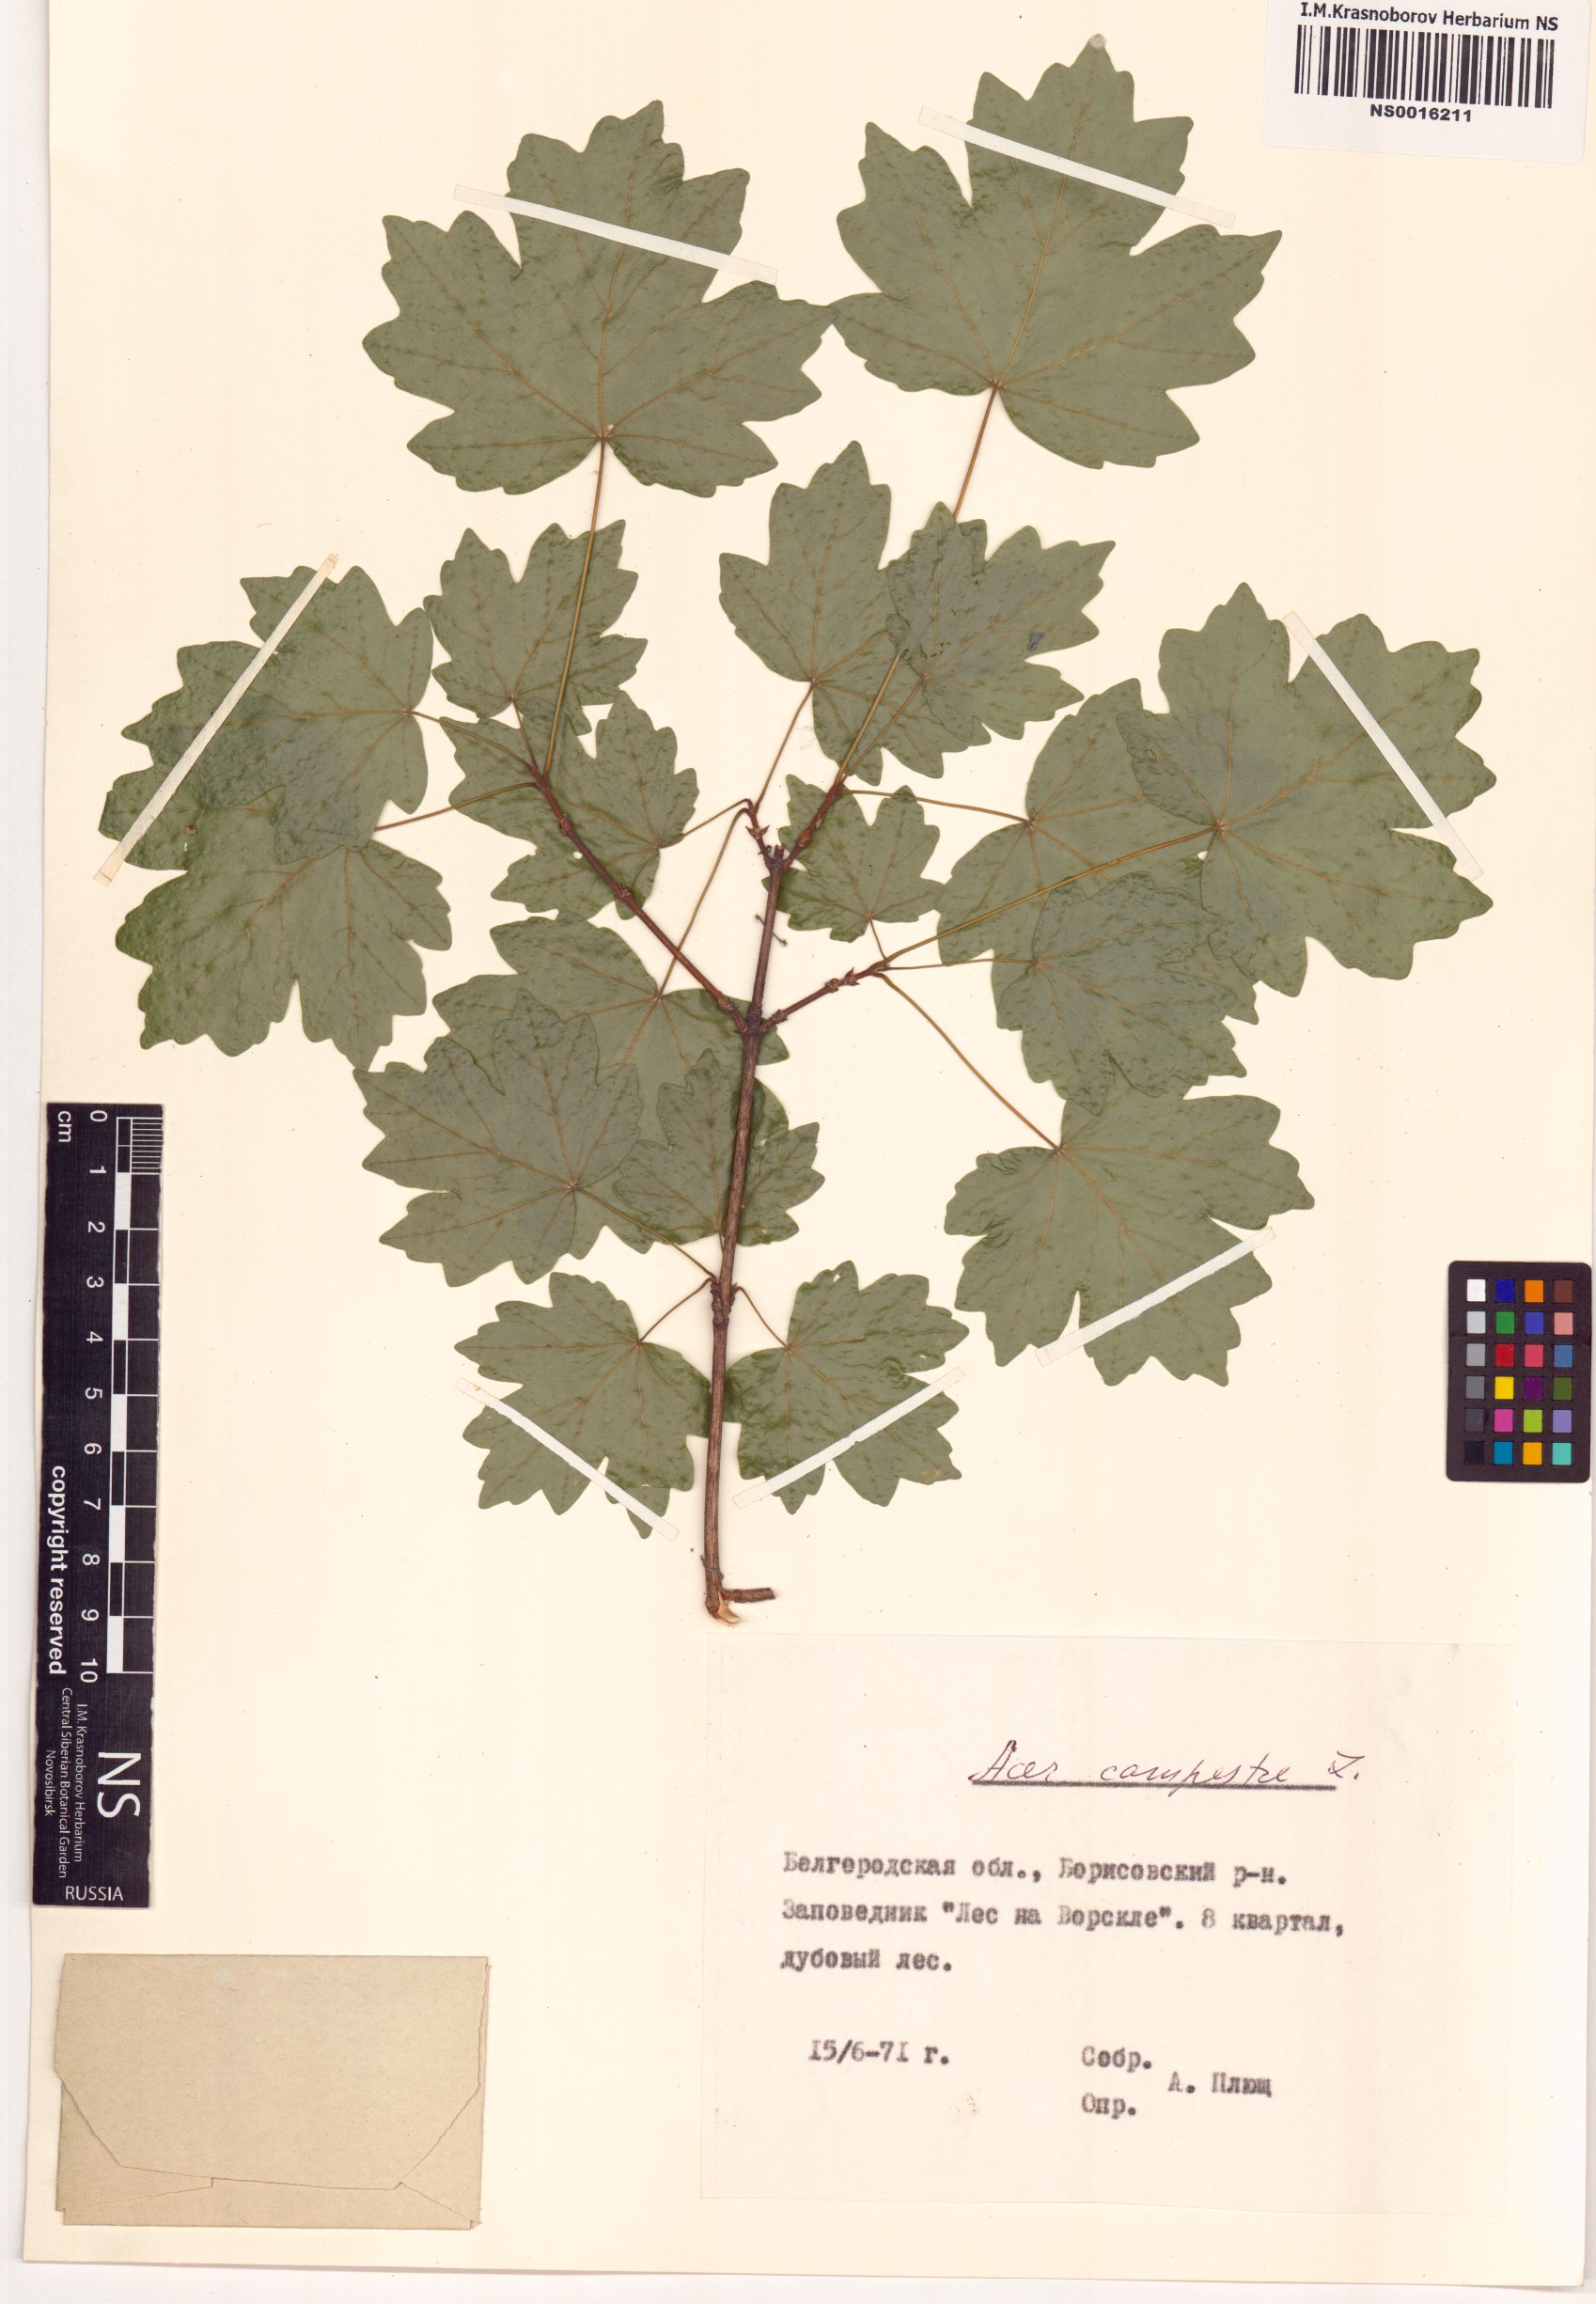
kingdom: Plantae
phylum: Tracheophyta
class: Magnoliopsida
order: Sapindales
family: Sapindaceae
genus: Acer
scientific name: Acer campestre
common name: Field maple
